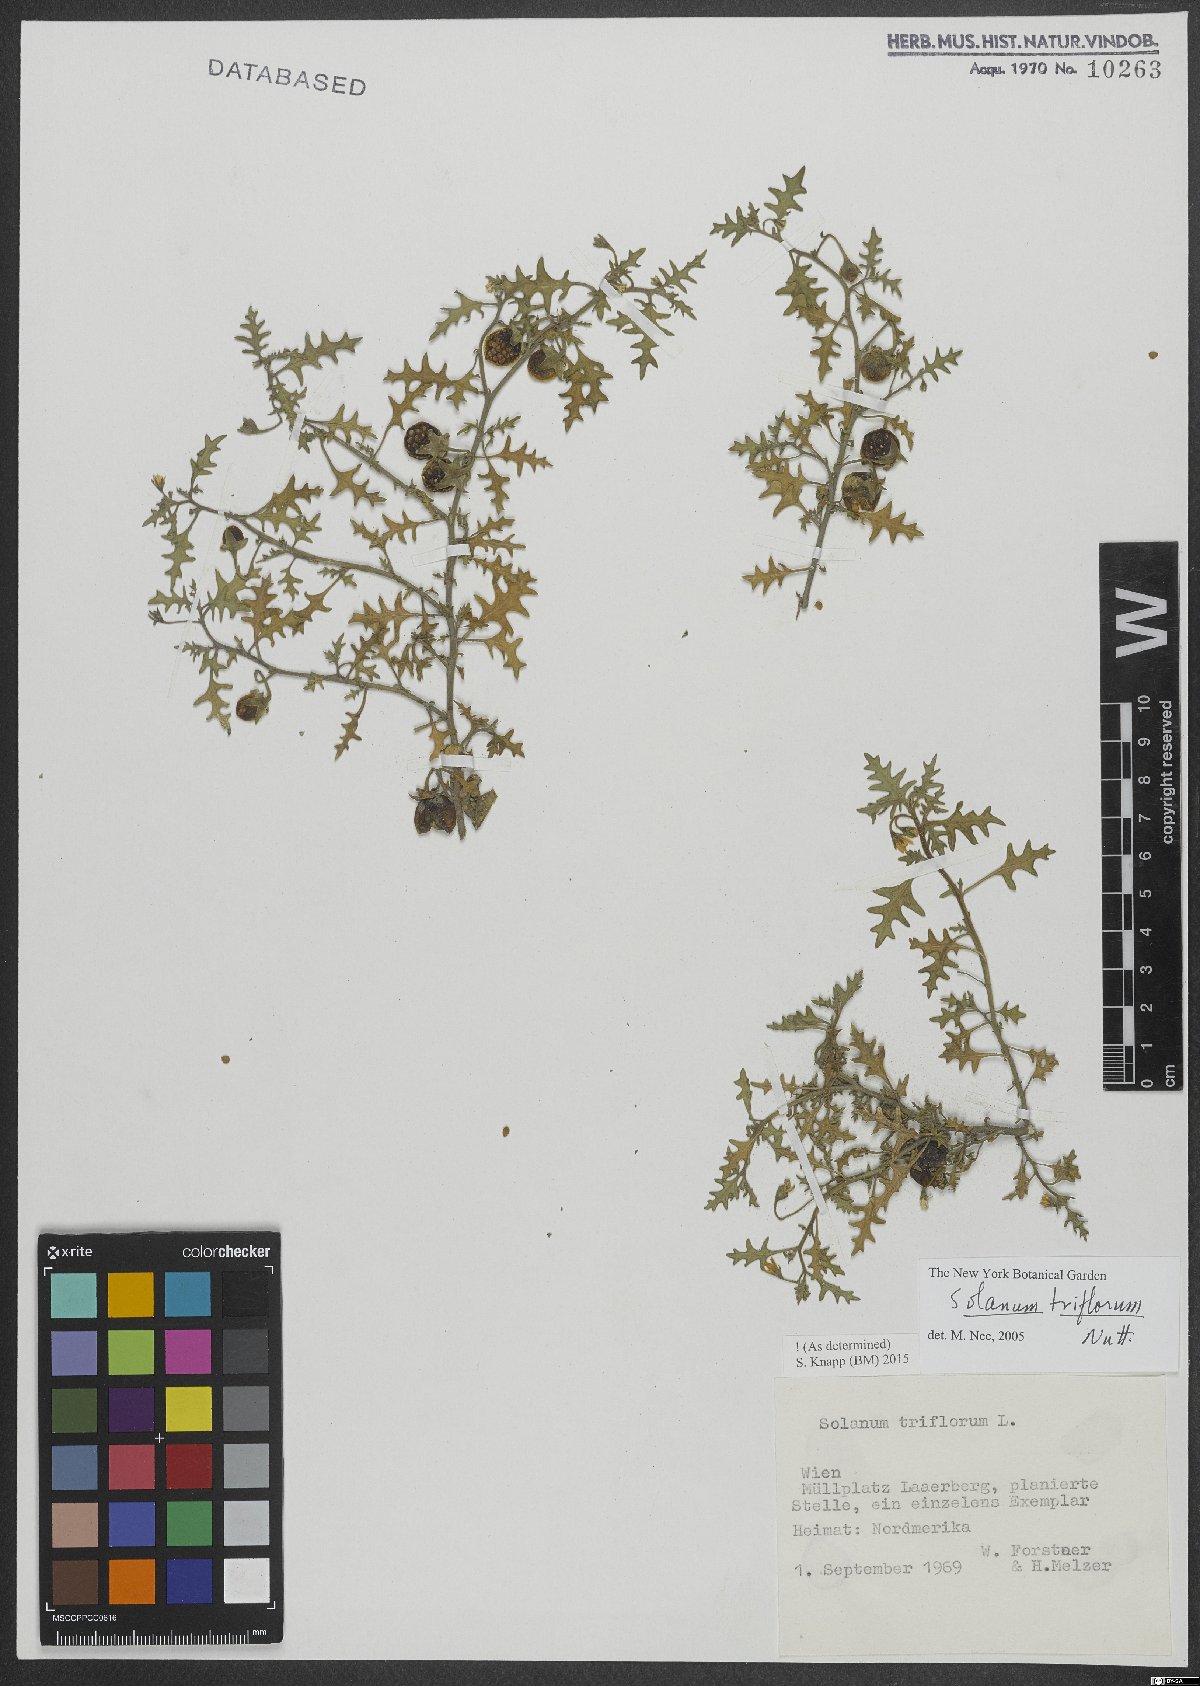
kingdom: Plantae
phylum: Tracheophyta
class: Magnoliopsida
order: Solanales
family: Solanaceae
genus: Solanum
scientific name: Solanum triflorum
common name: Small nightshade
